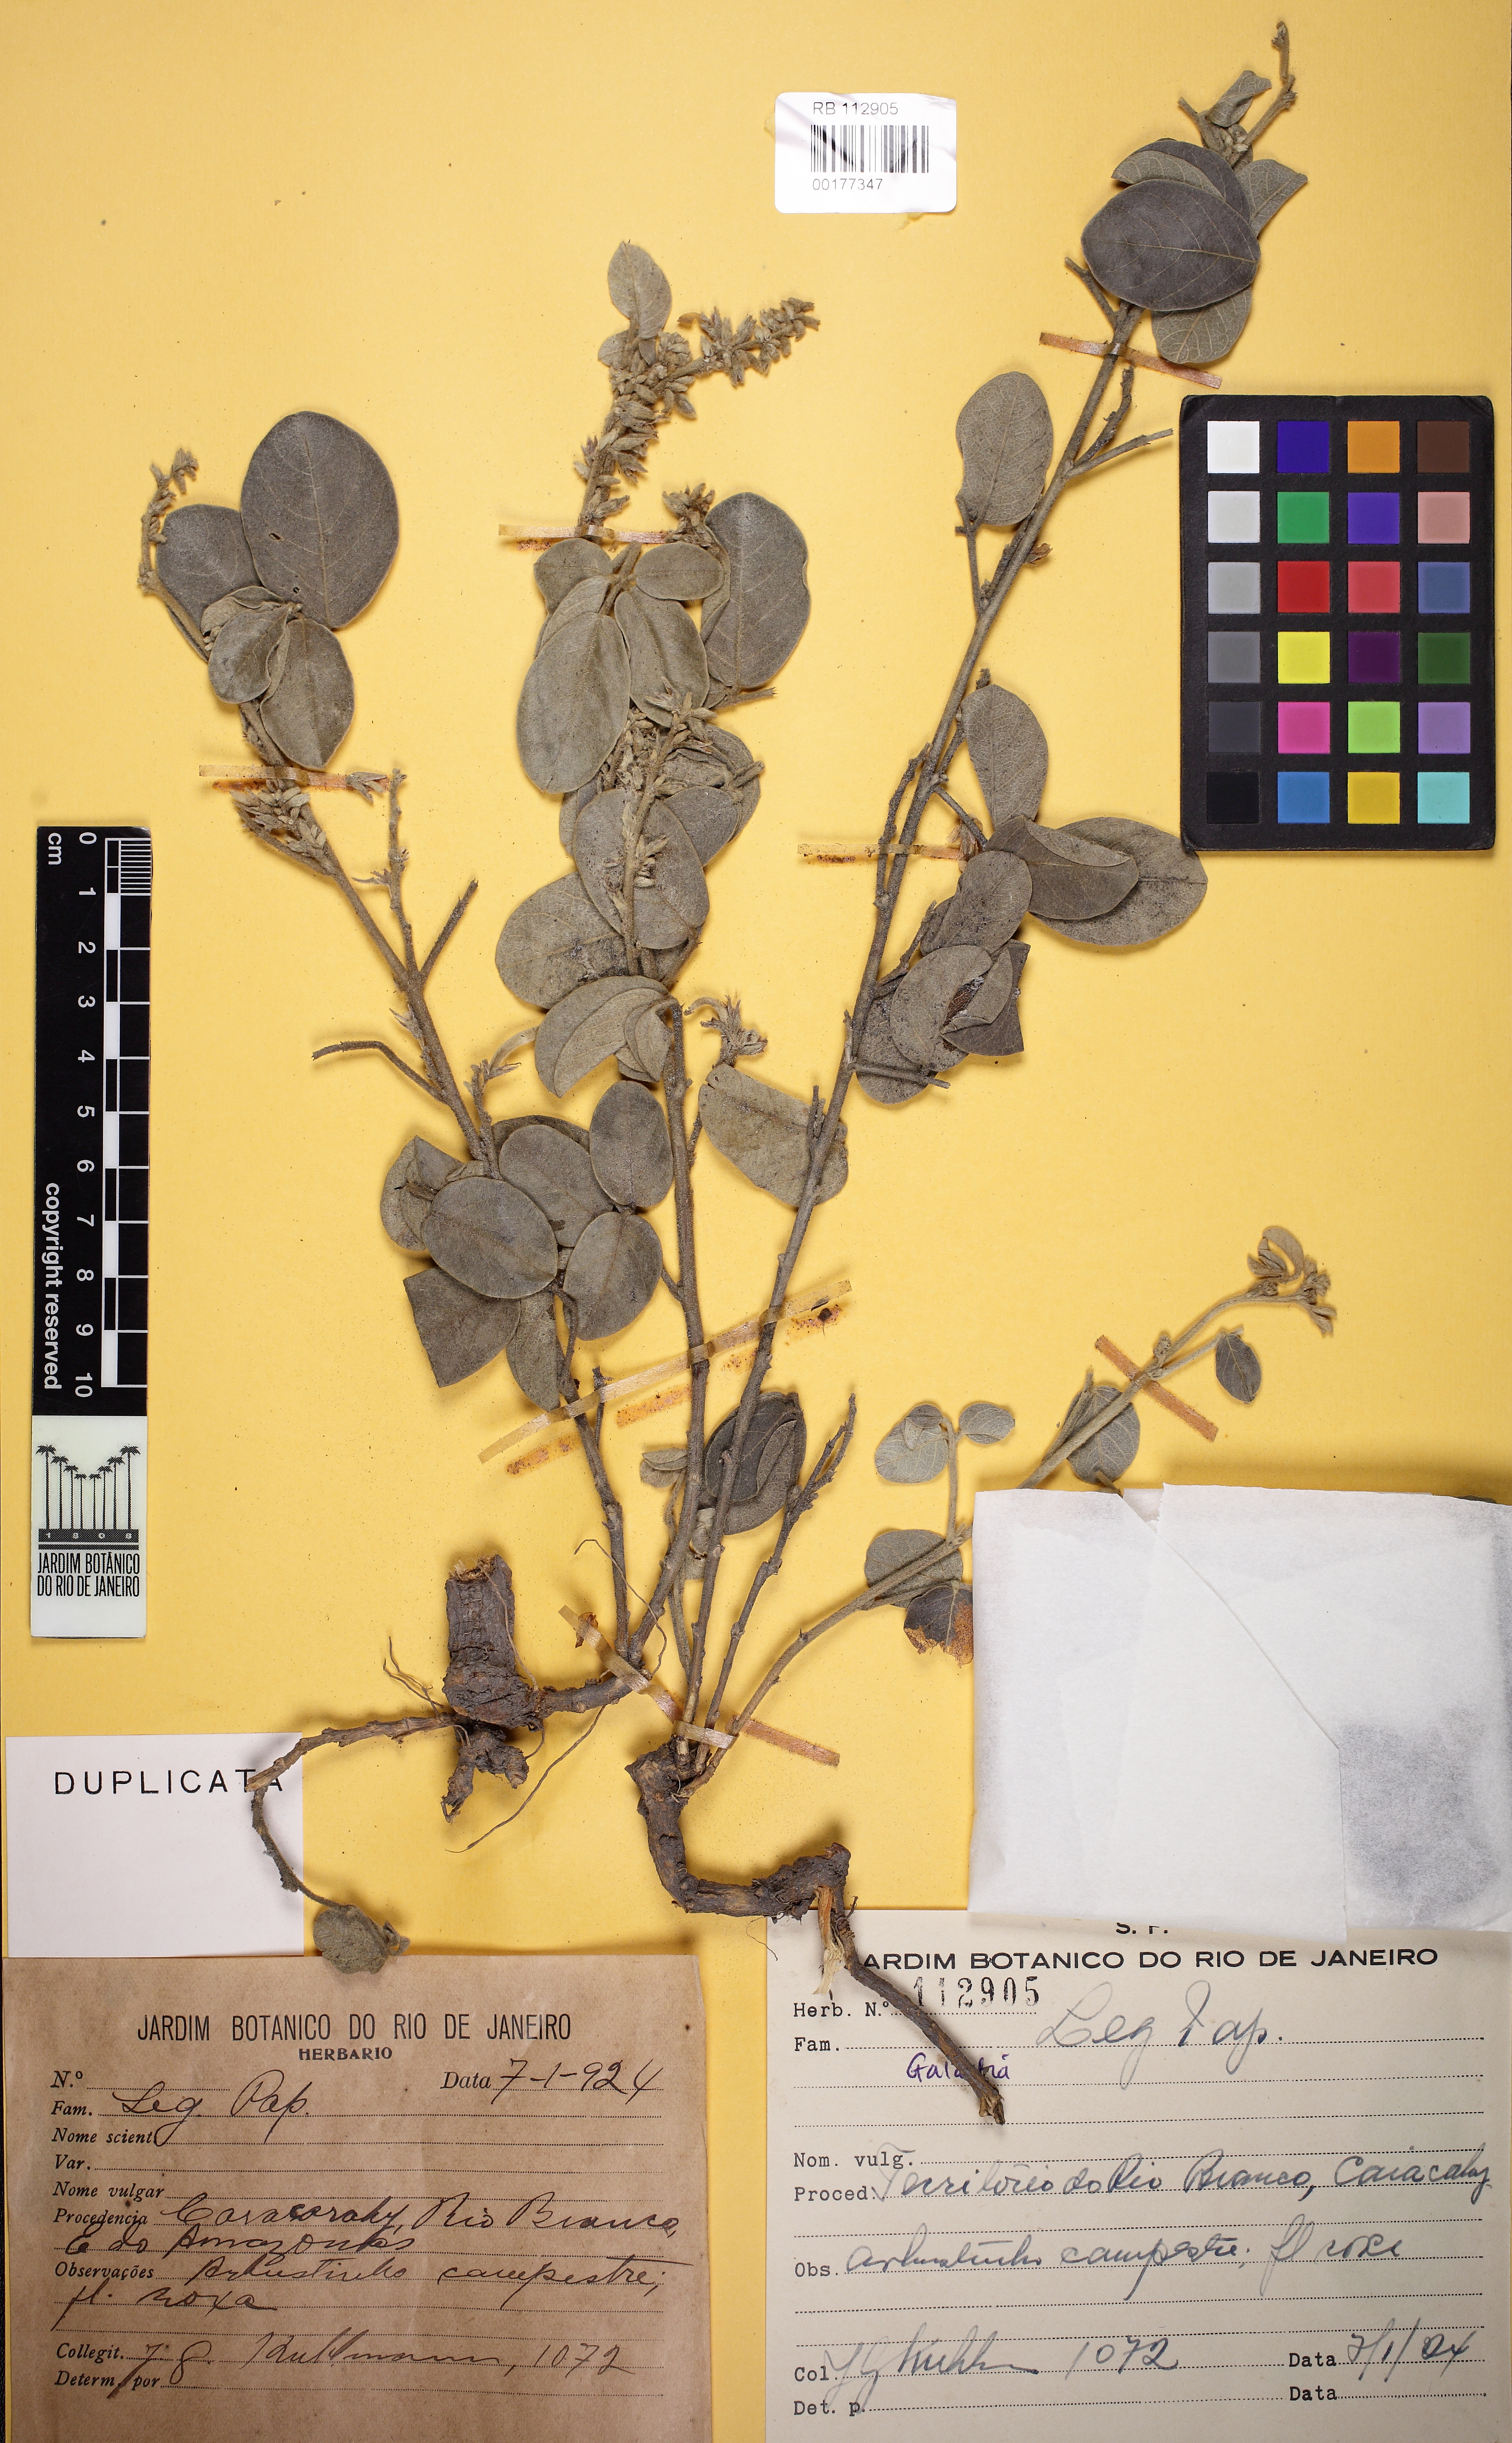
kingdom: Plantae
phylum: Tracheophyta
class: Magnoliopsida
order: Fabales
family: Fabaceae
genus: Galactia
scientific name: Galactia
